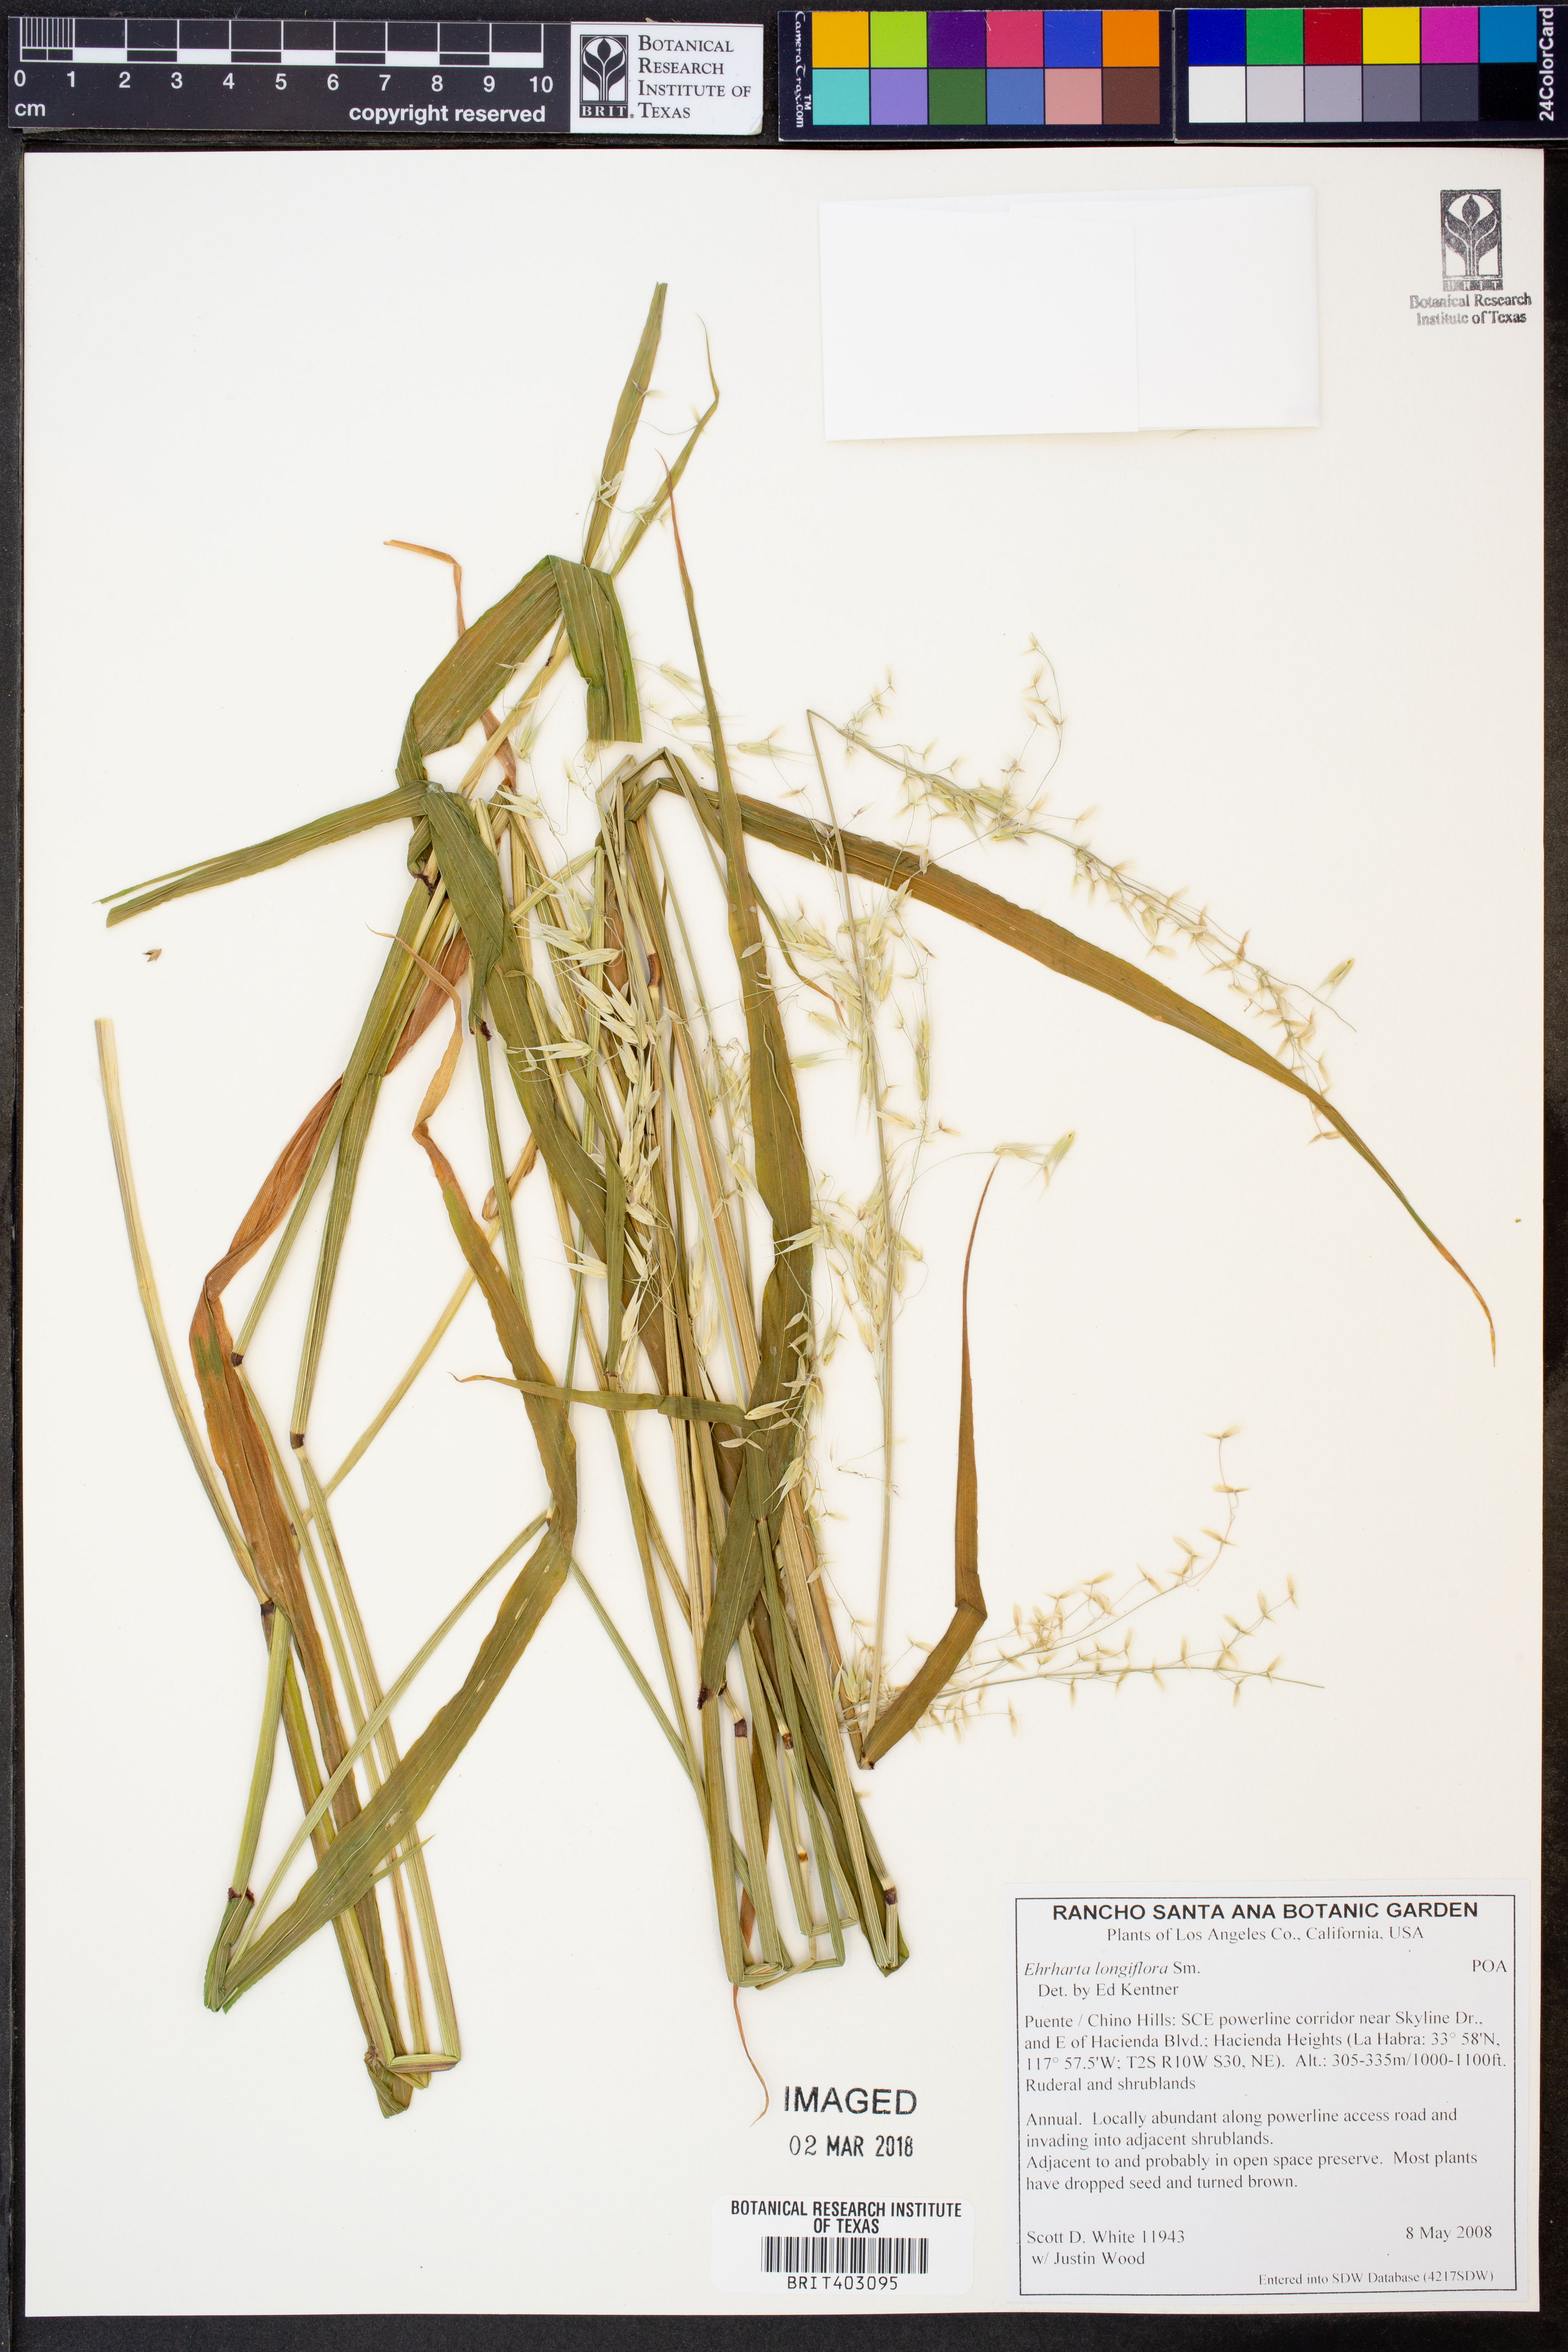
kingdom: Plantae
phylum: Tracheophyta
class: Liliopsida
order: Poales
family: Poaceae
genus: Ehrharta
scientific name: Ehrharta longiflora
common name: Longflowered veldtgrass
